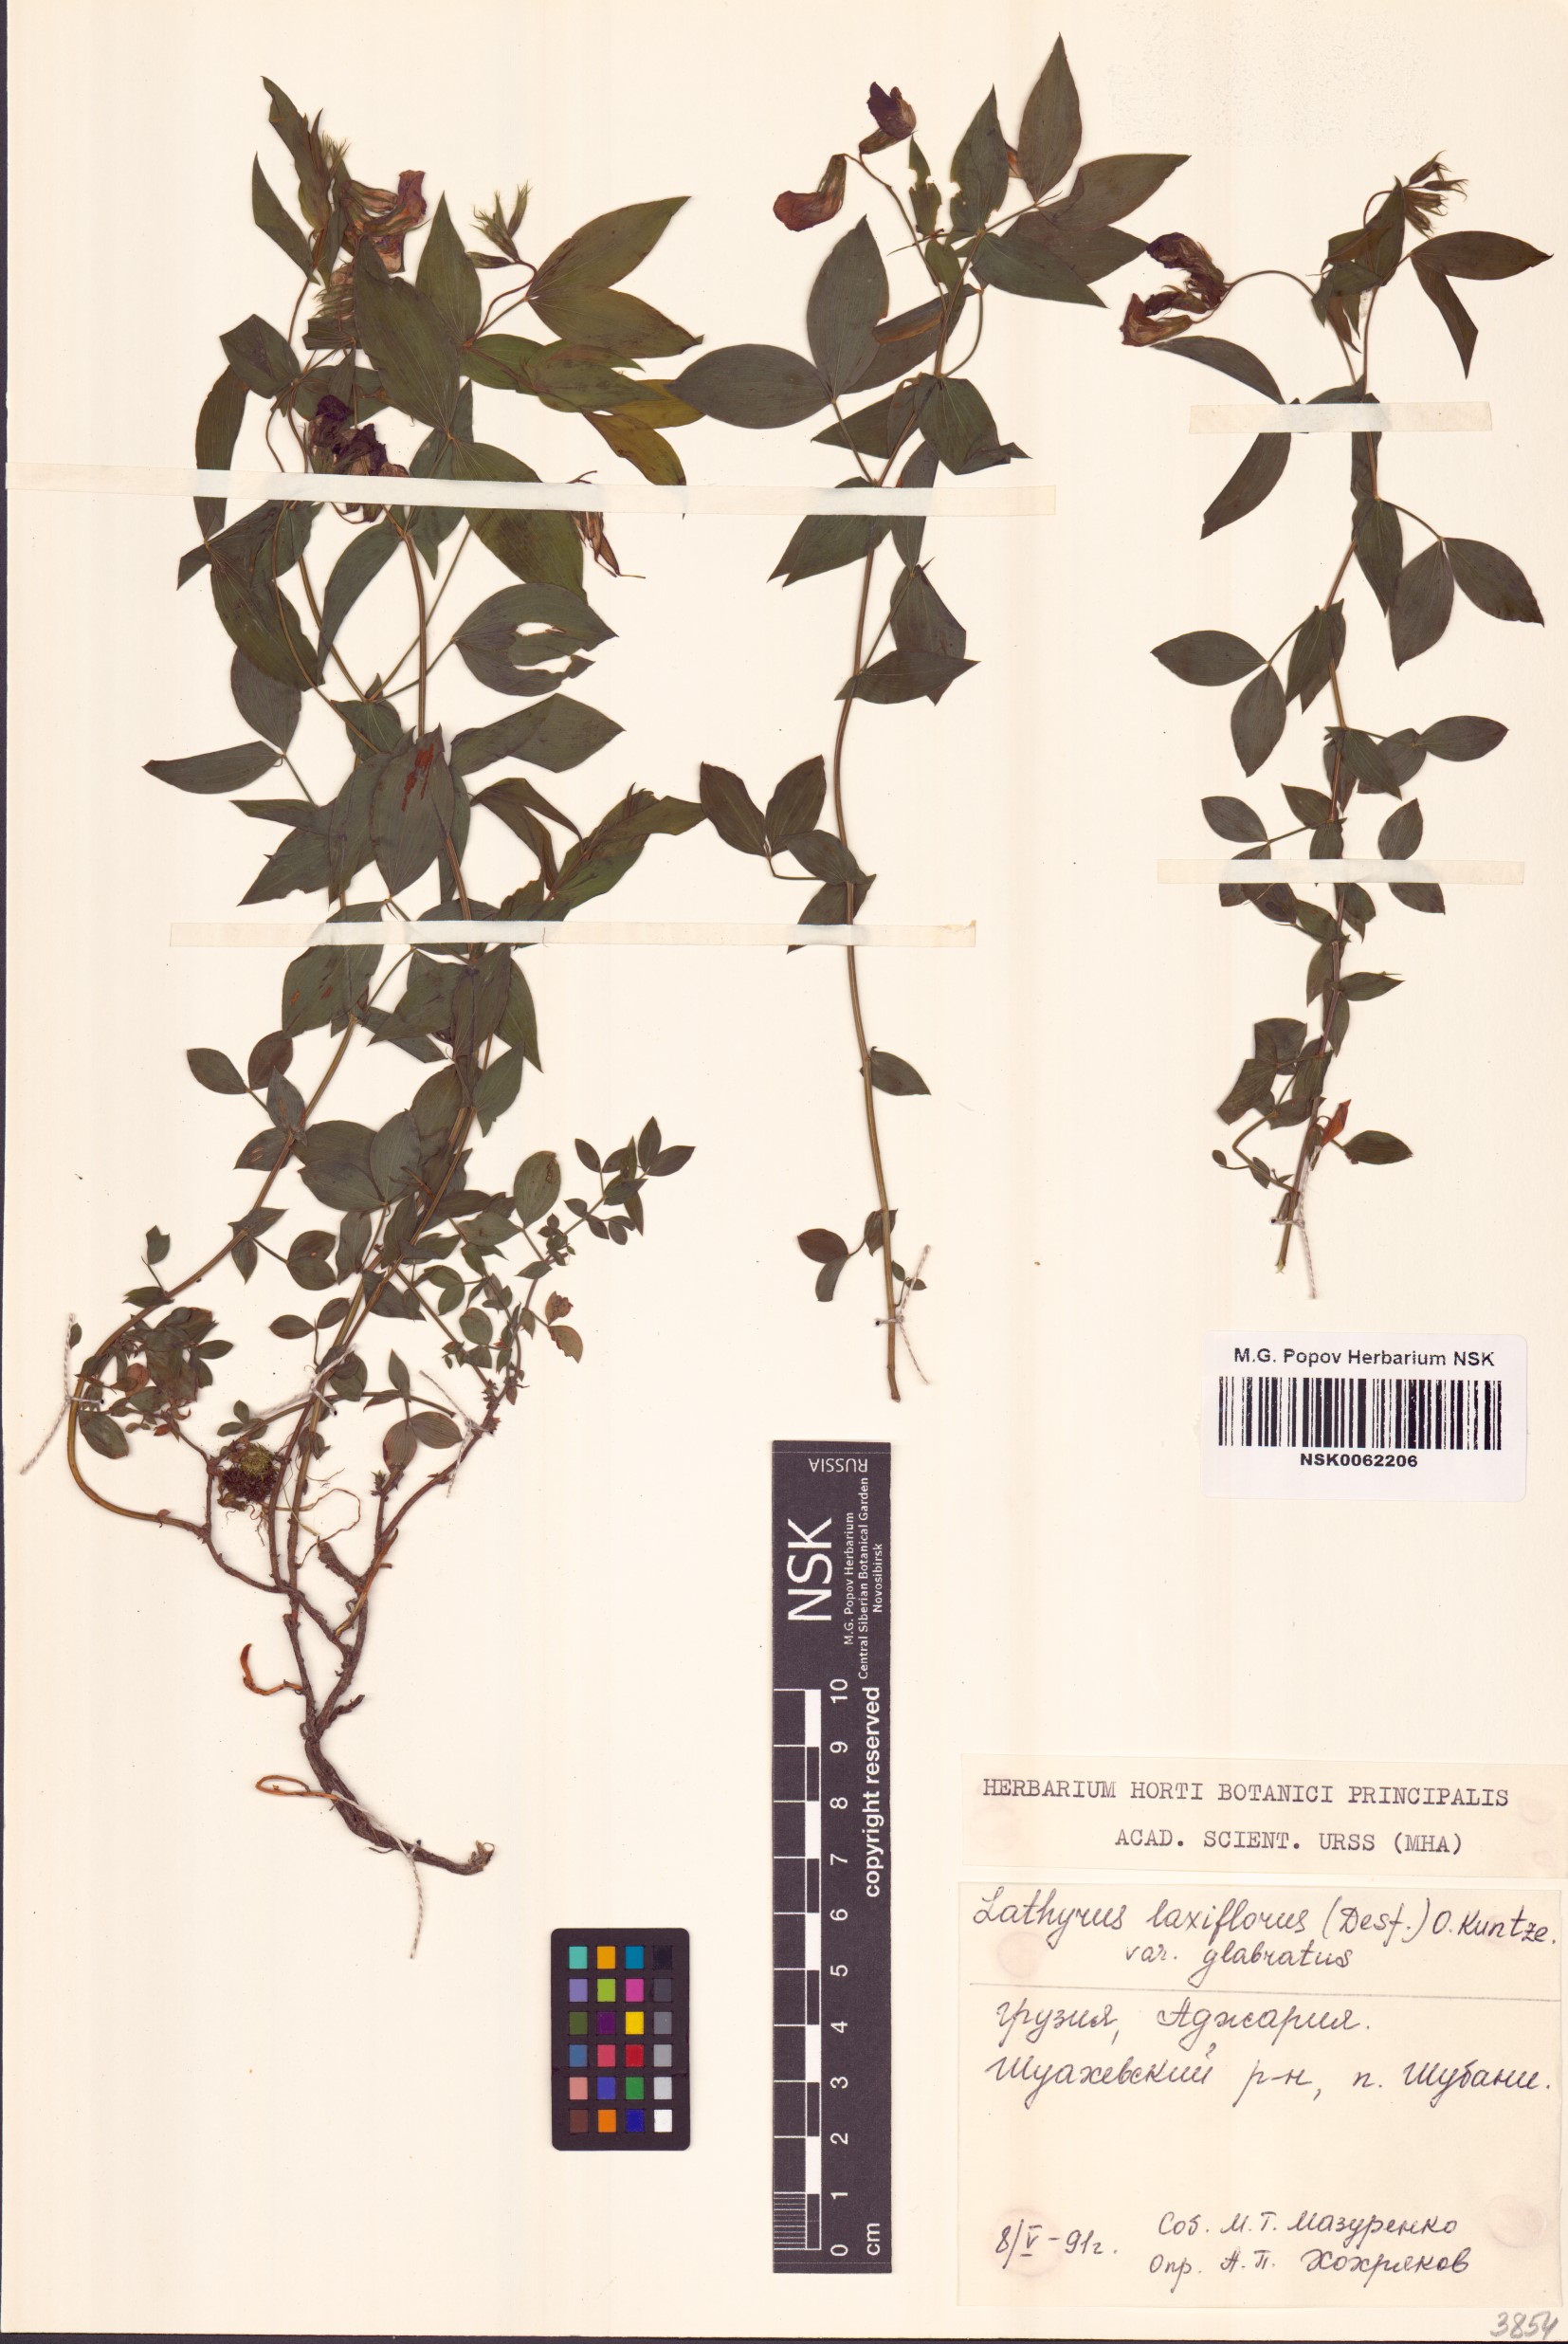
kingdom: Plantae
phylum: Tracheophyta
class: Magnoliopsida
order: Fabales
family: Fabaceae
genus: Lathyrus
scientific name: Lathyrus laxiflorus
